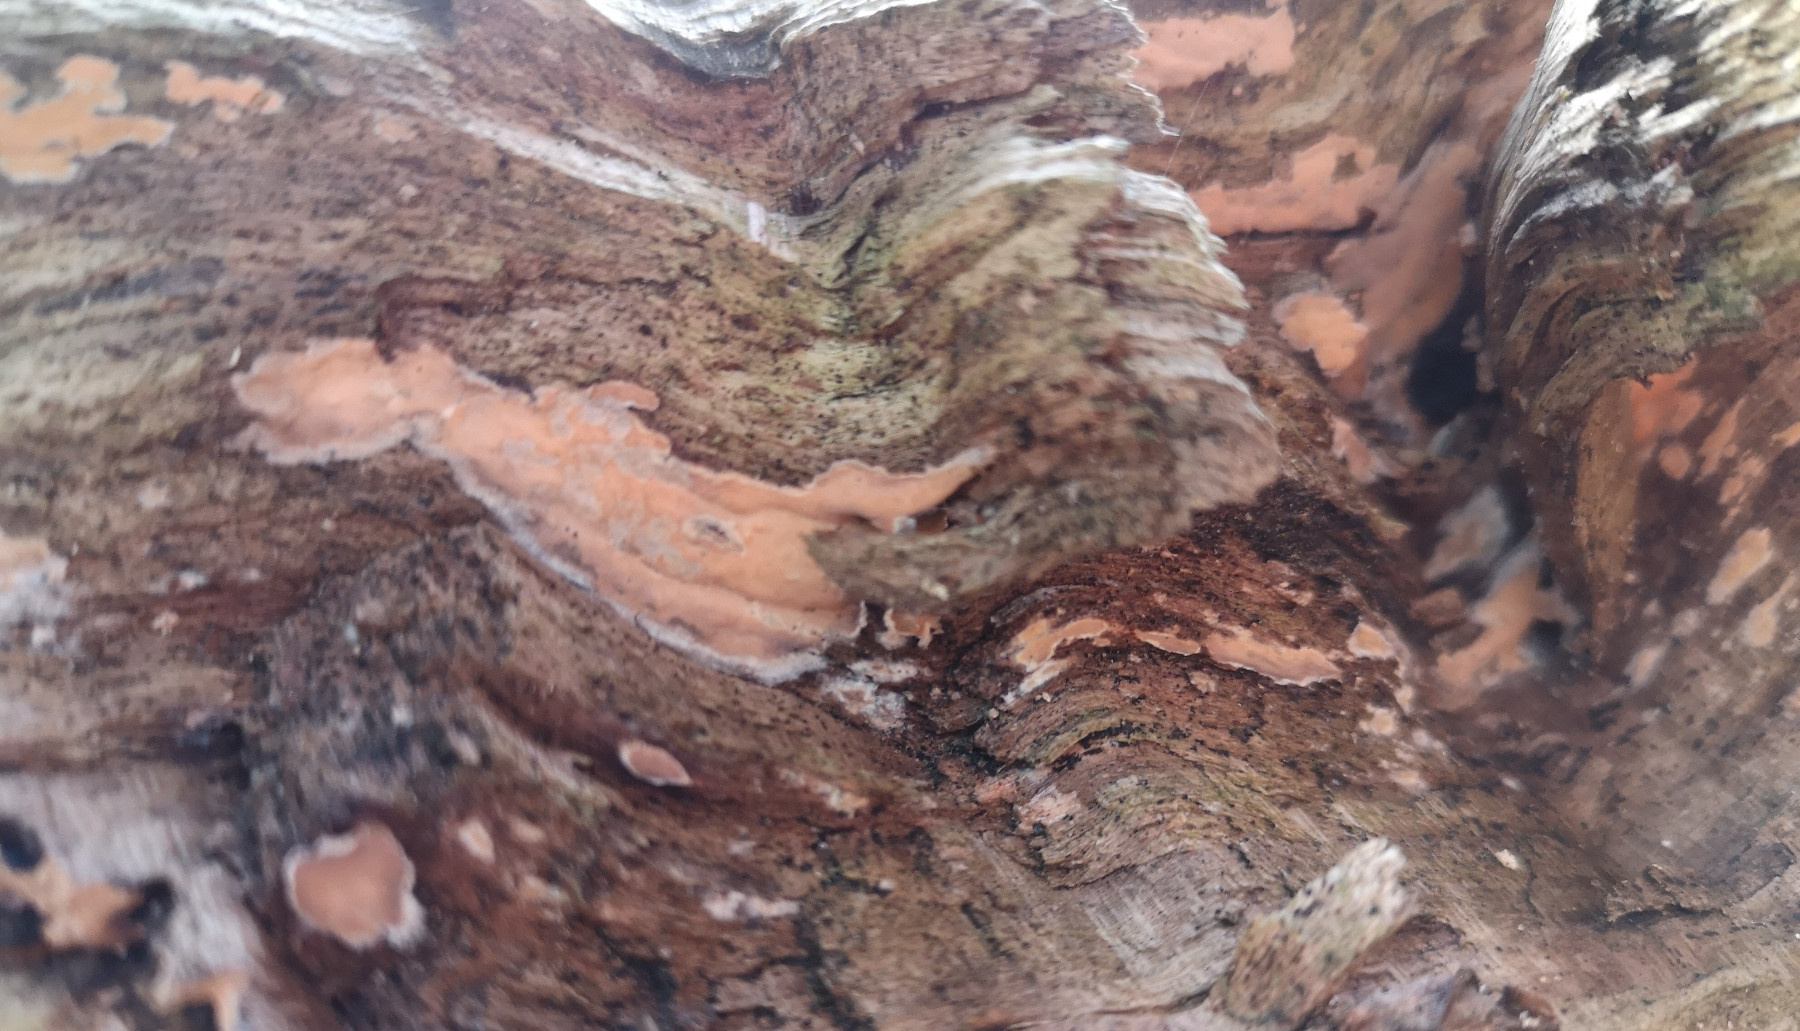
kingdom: Fungi
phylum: Basidiomycota
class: Agaricomycetes
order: Russulales
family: Peniophoraceae
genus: Peniophora
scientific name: Peniophora incarnata
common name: laksefarvet voksskind
